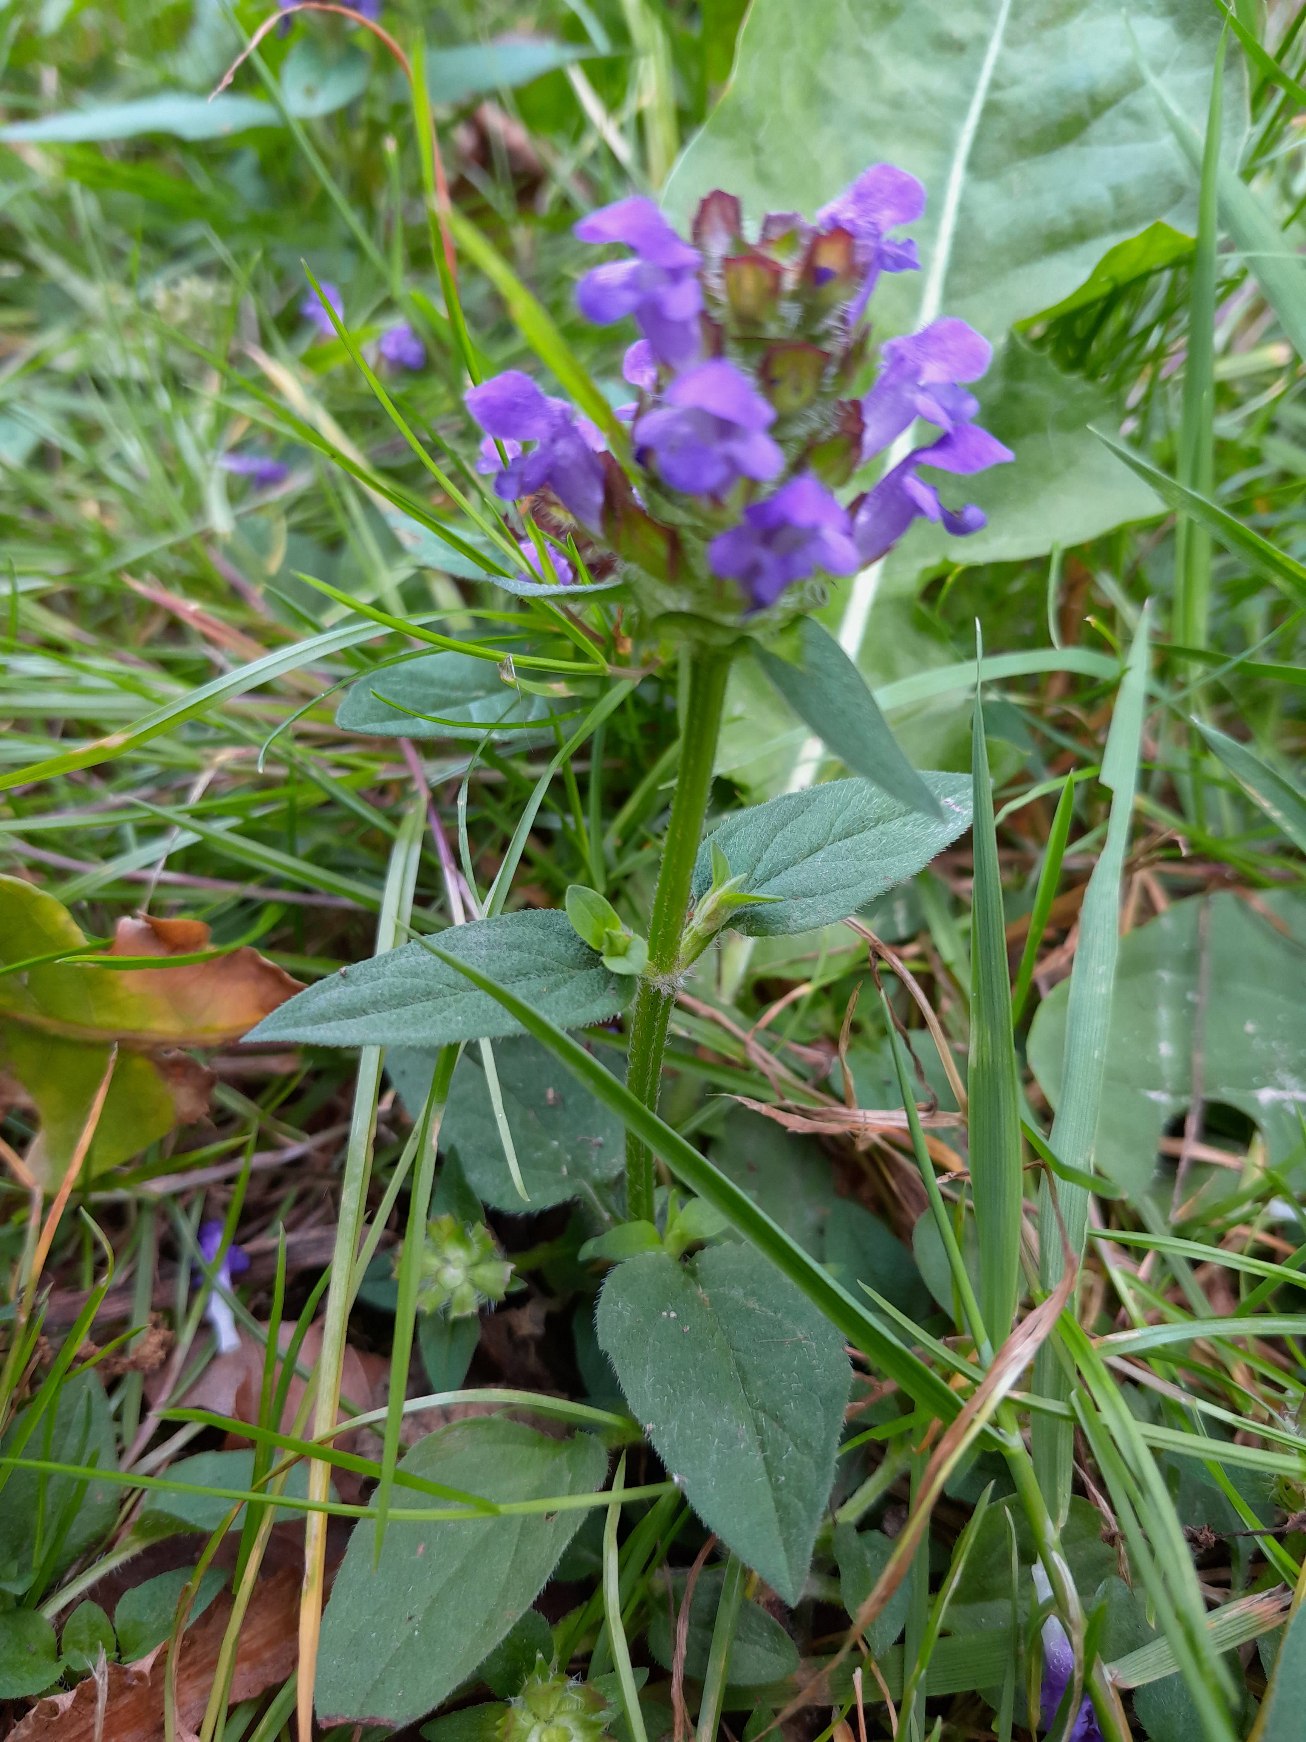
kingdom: Plantae
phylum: Tracheophyta
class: Magnoliopsida
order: Lamiales
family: Lamiaceae
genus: Prunella
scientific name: Prunella vulgaris
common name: Almindelig brunelle
